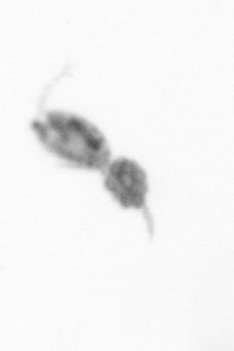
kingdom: Animalia
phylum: Arthropoda
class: Copepoda
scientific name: Copepoda
